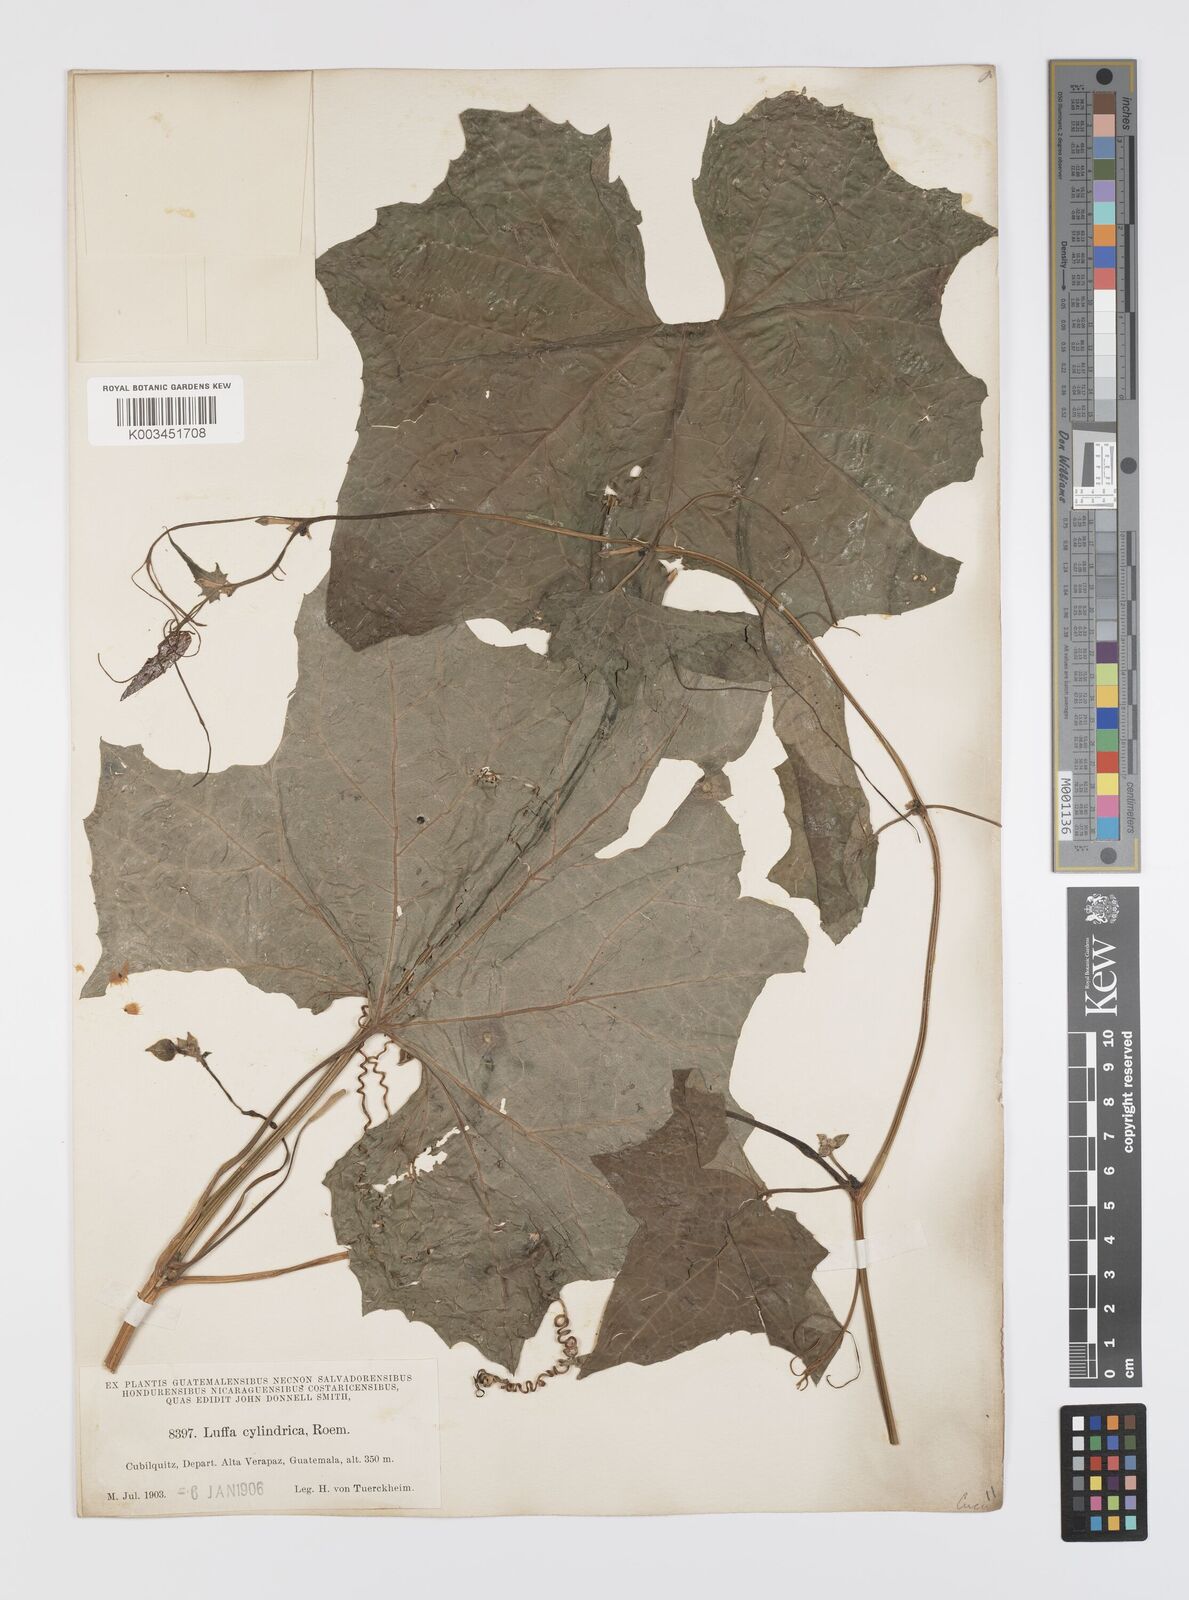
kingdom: Plantae
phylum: Tracheophyta
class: Magnoliopsida
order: Cucurbitales
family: Cucurbitaceae
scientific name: Cucurbitaceae
